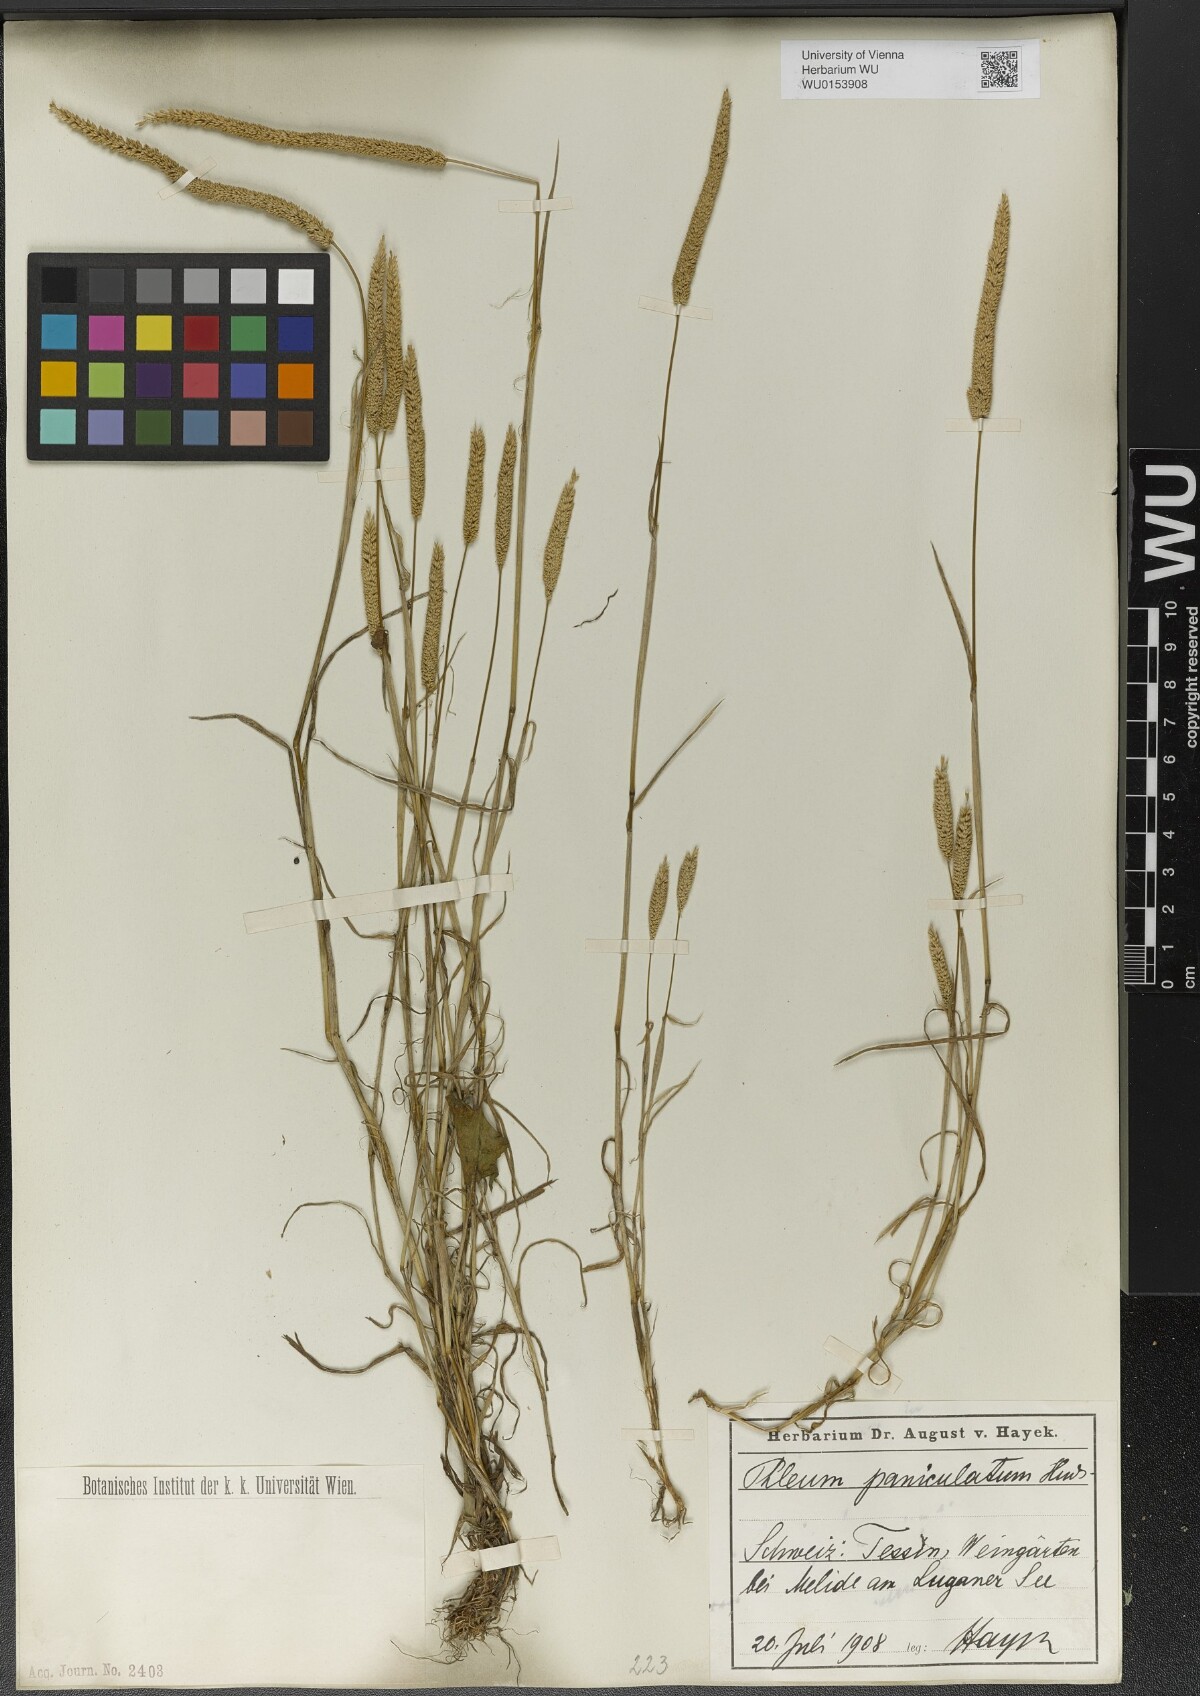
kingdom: Plantae
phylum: Tracheophyta
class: Liliopsida
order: Poales
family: Poaceae
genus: Phleum
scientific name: Phleum paniculatum
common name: British timothy
